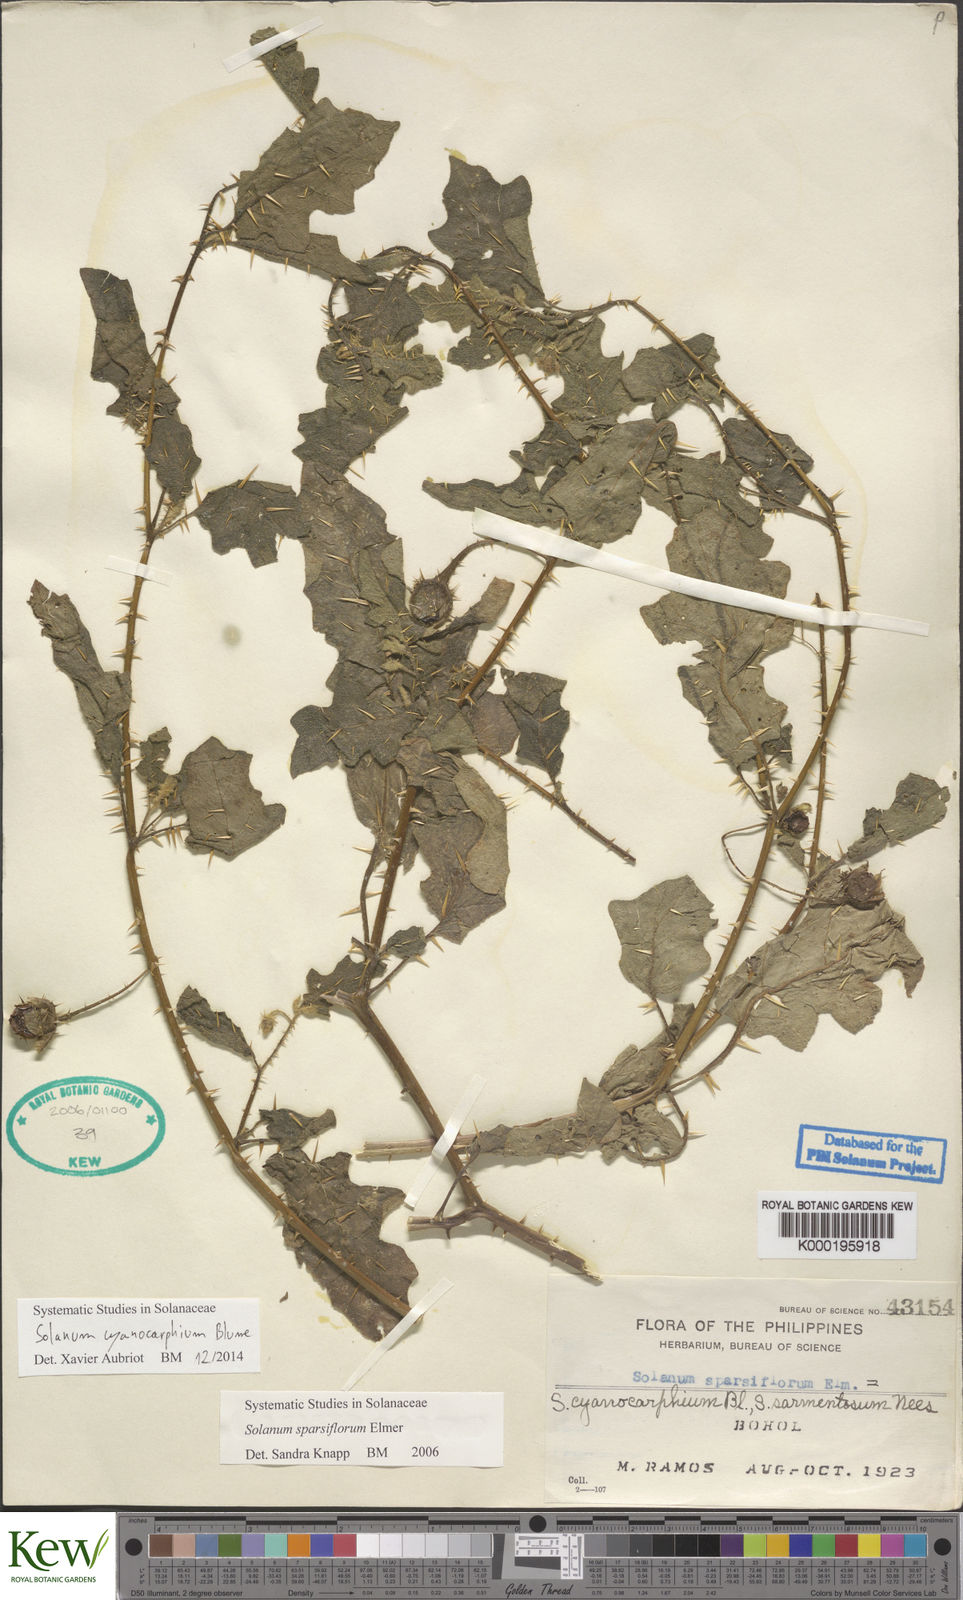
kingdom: Plantae
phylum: Tracheophyta
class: Magnoliopsida
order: Solanales
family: Solanaceae
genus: Solanum
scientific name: Solanum cyanocarphium
